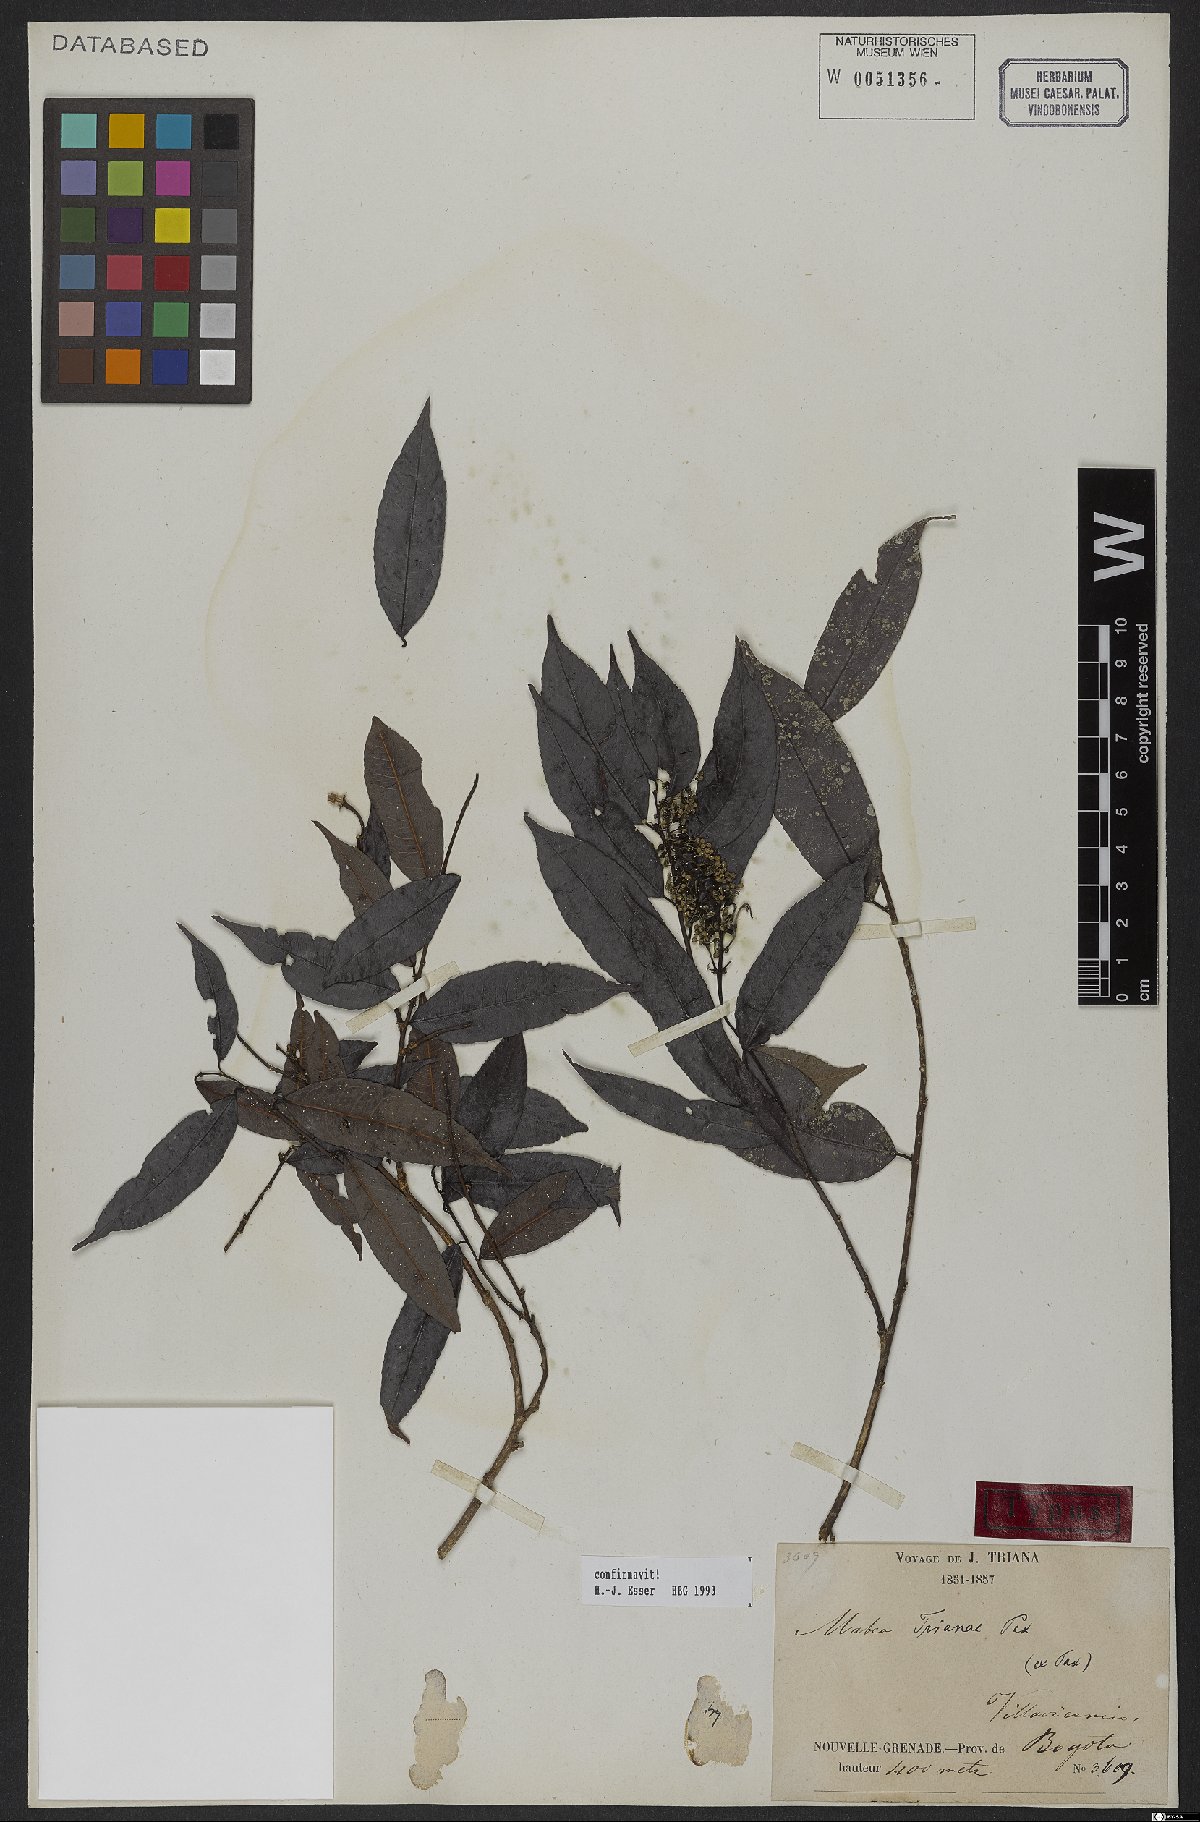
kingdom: Plantae
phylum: Tracheophyta
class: Magnoliopsida
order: Malpighiales
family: Euphorbiaceae
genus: Mabea
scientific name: Mabea trianae
